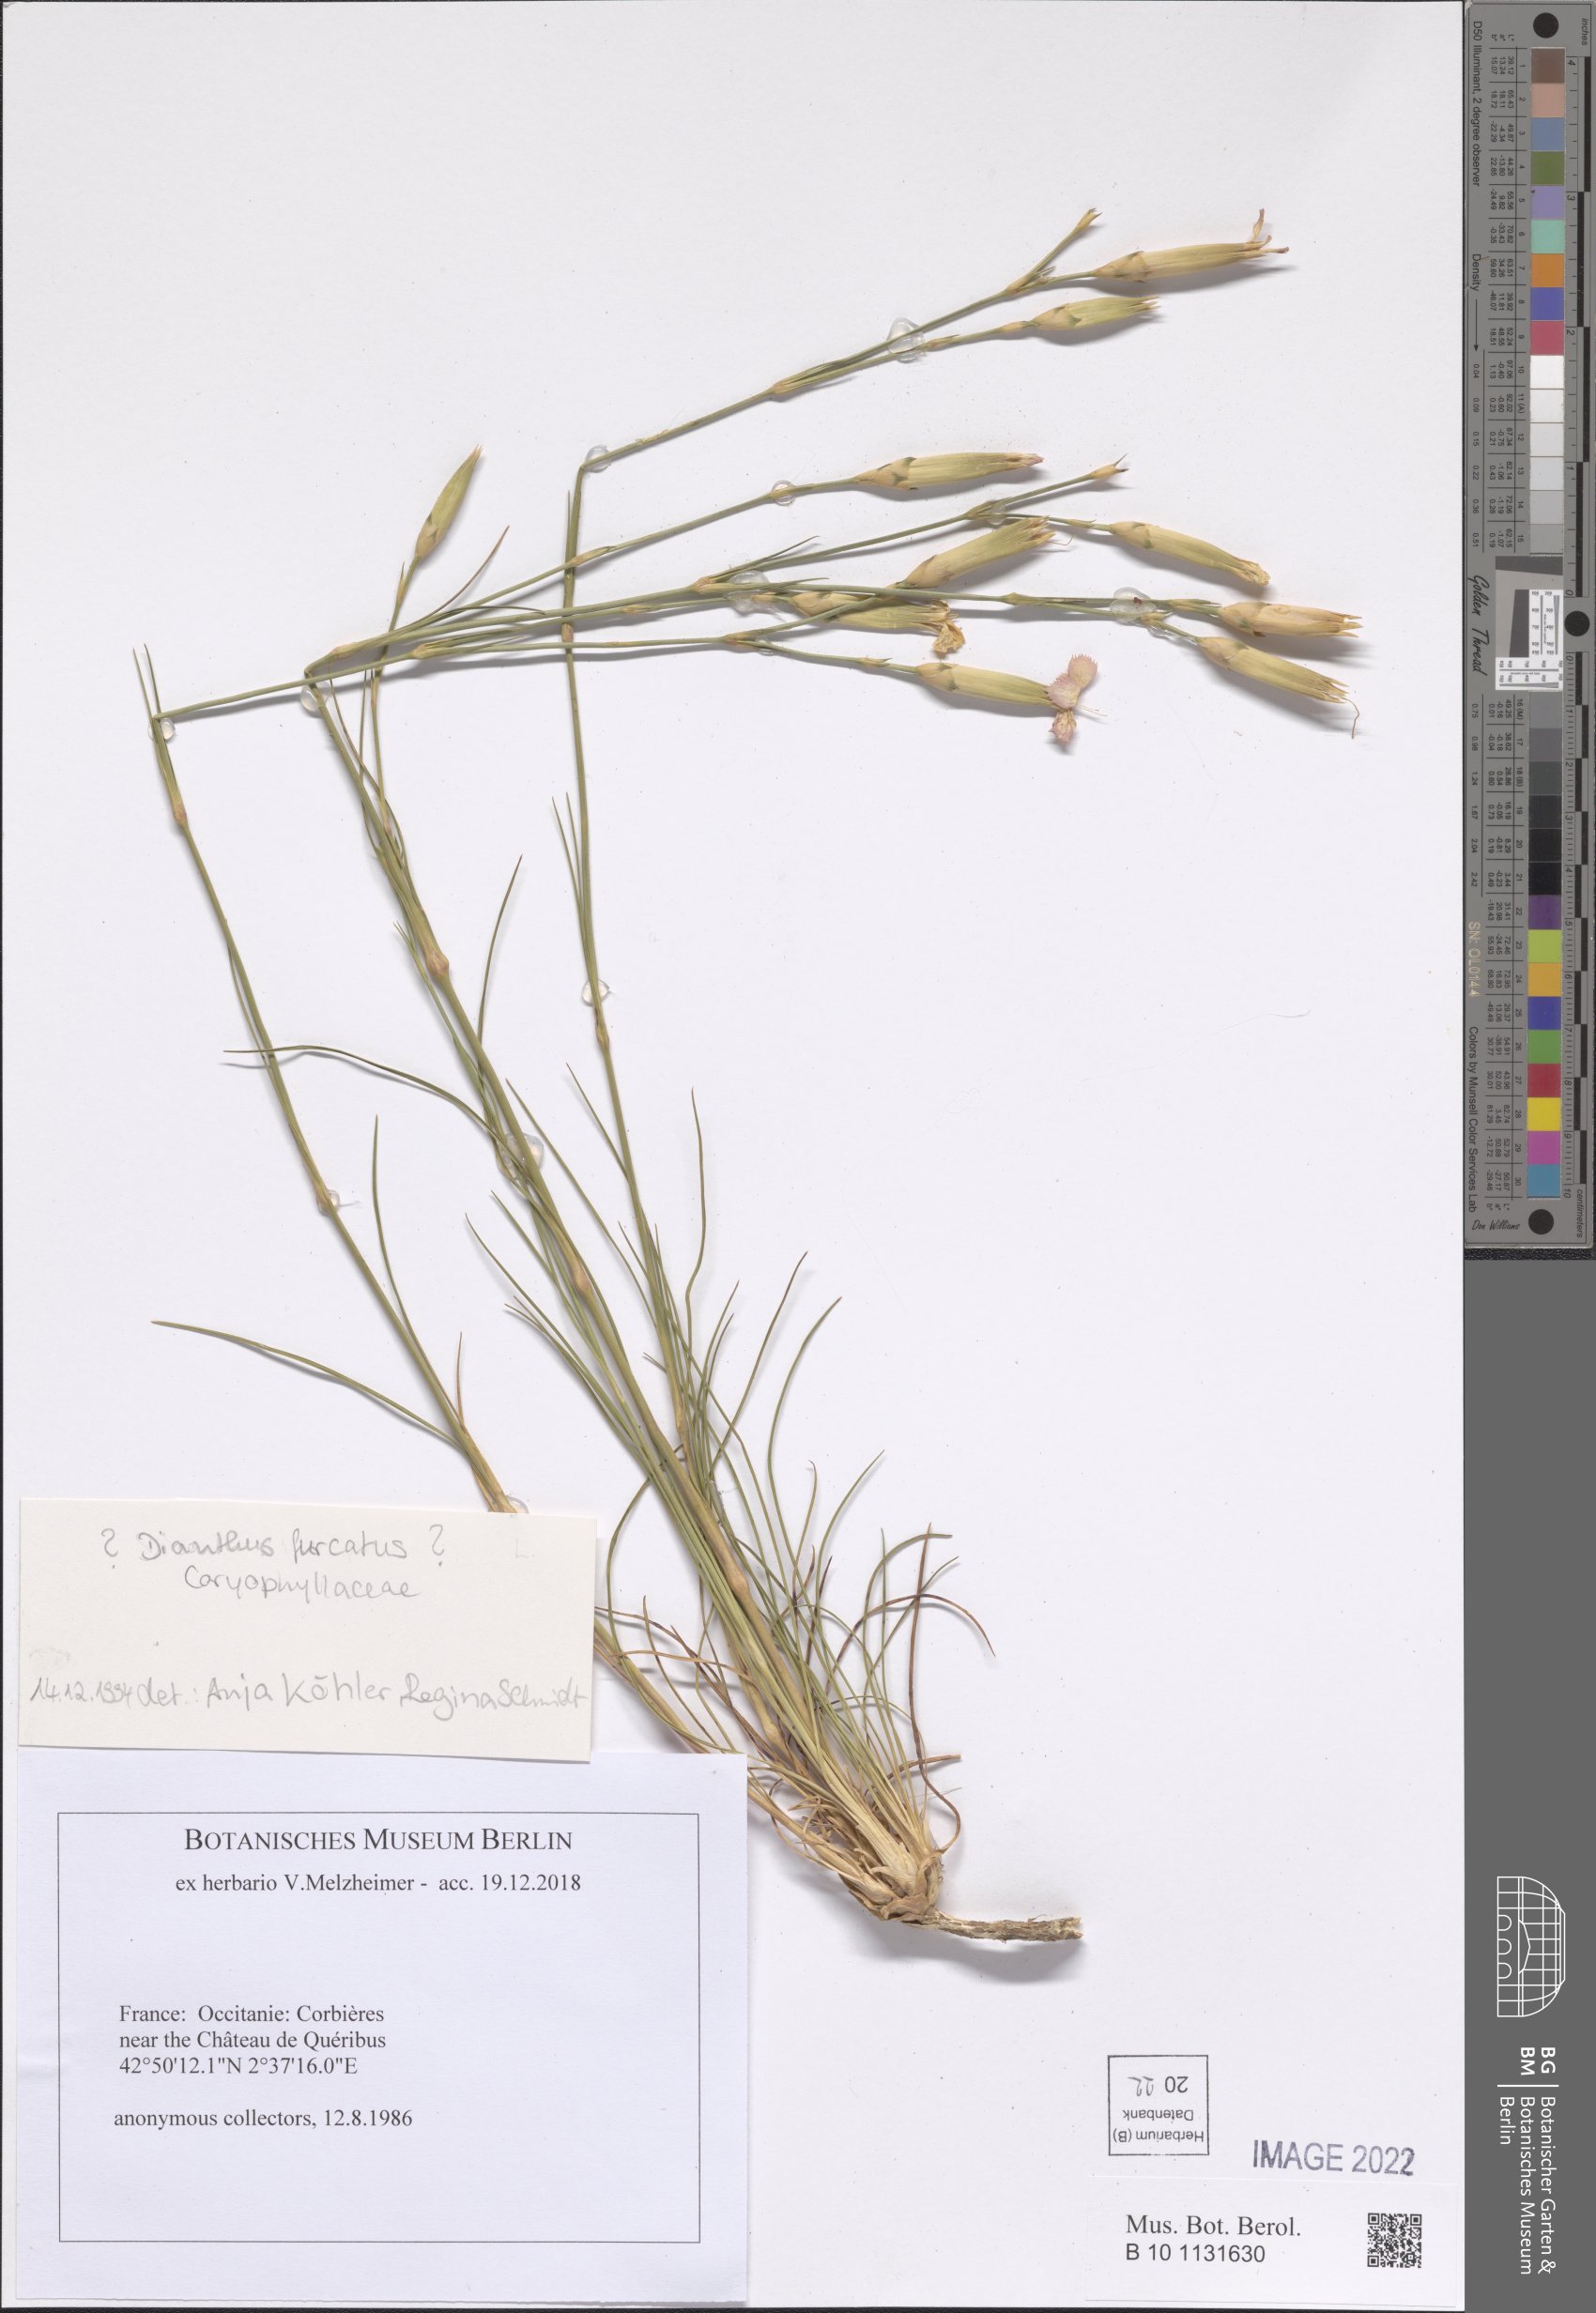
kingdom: Plantae
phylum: Tracheophyta
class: Magnoliopsida
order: Caryophyllales
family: Caryophyllaceae
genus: Dianthus
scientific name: Dianthus furcatus
